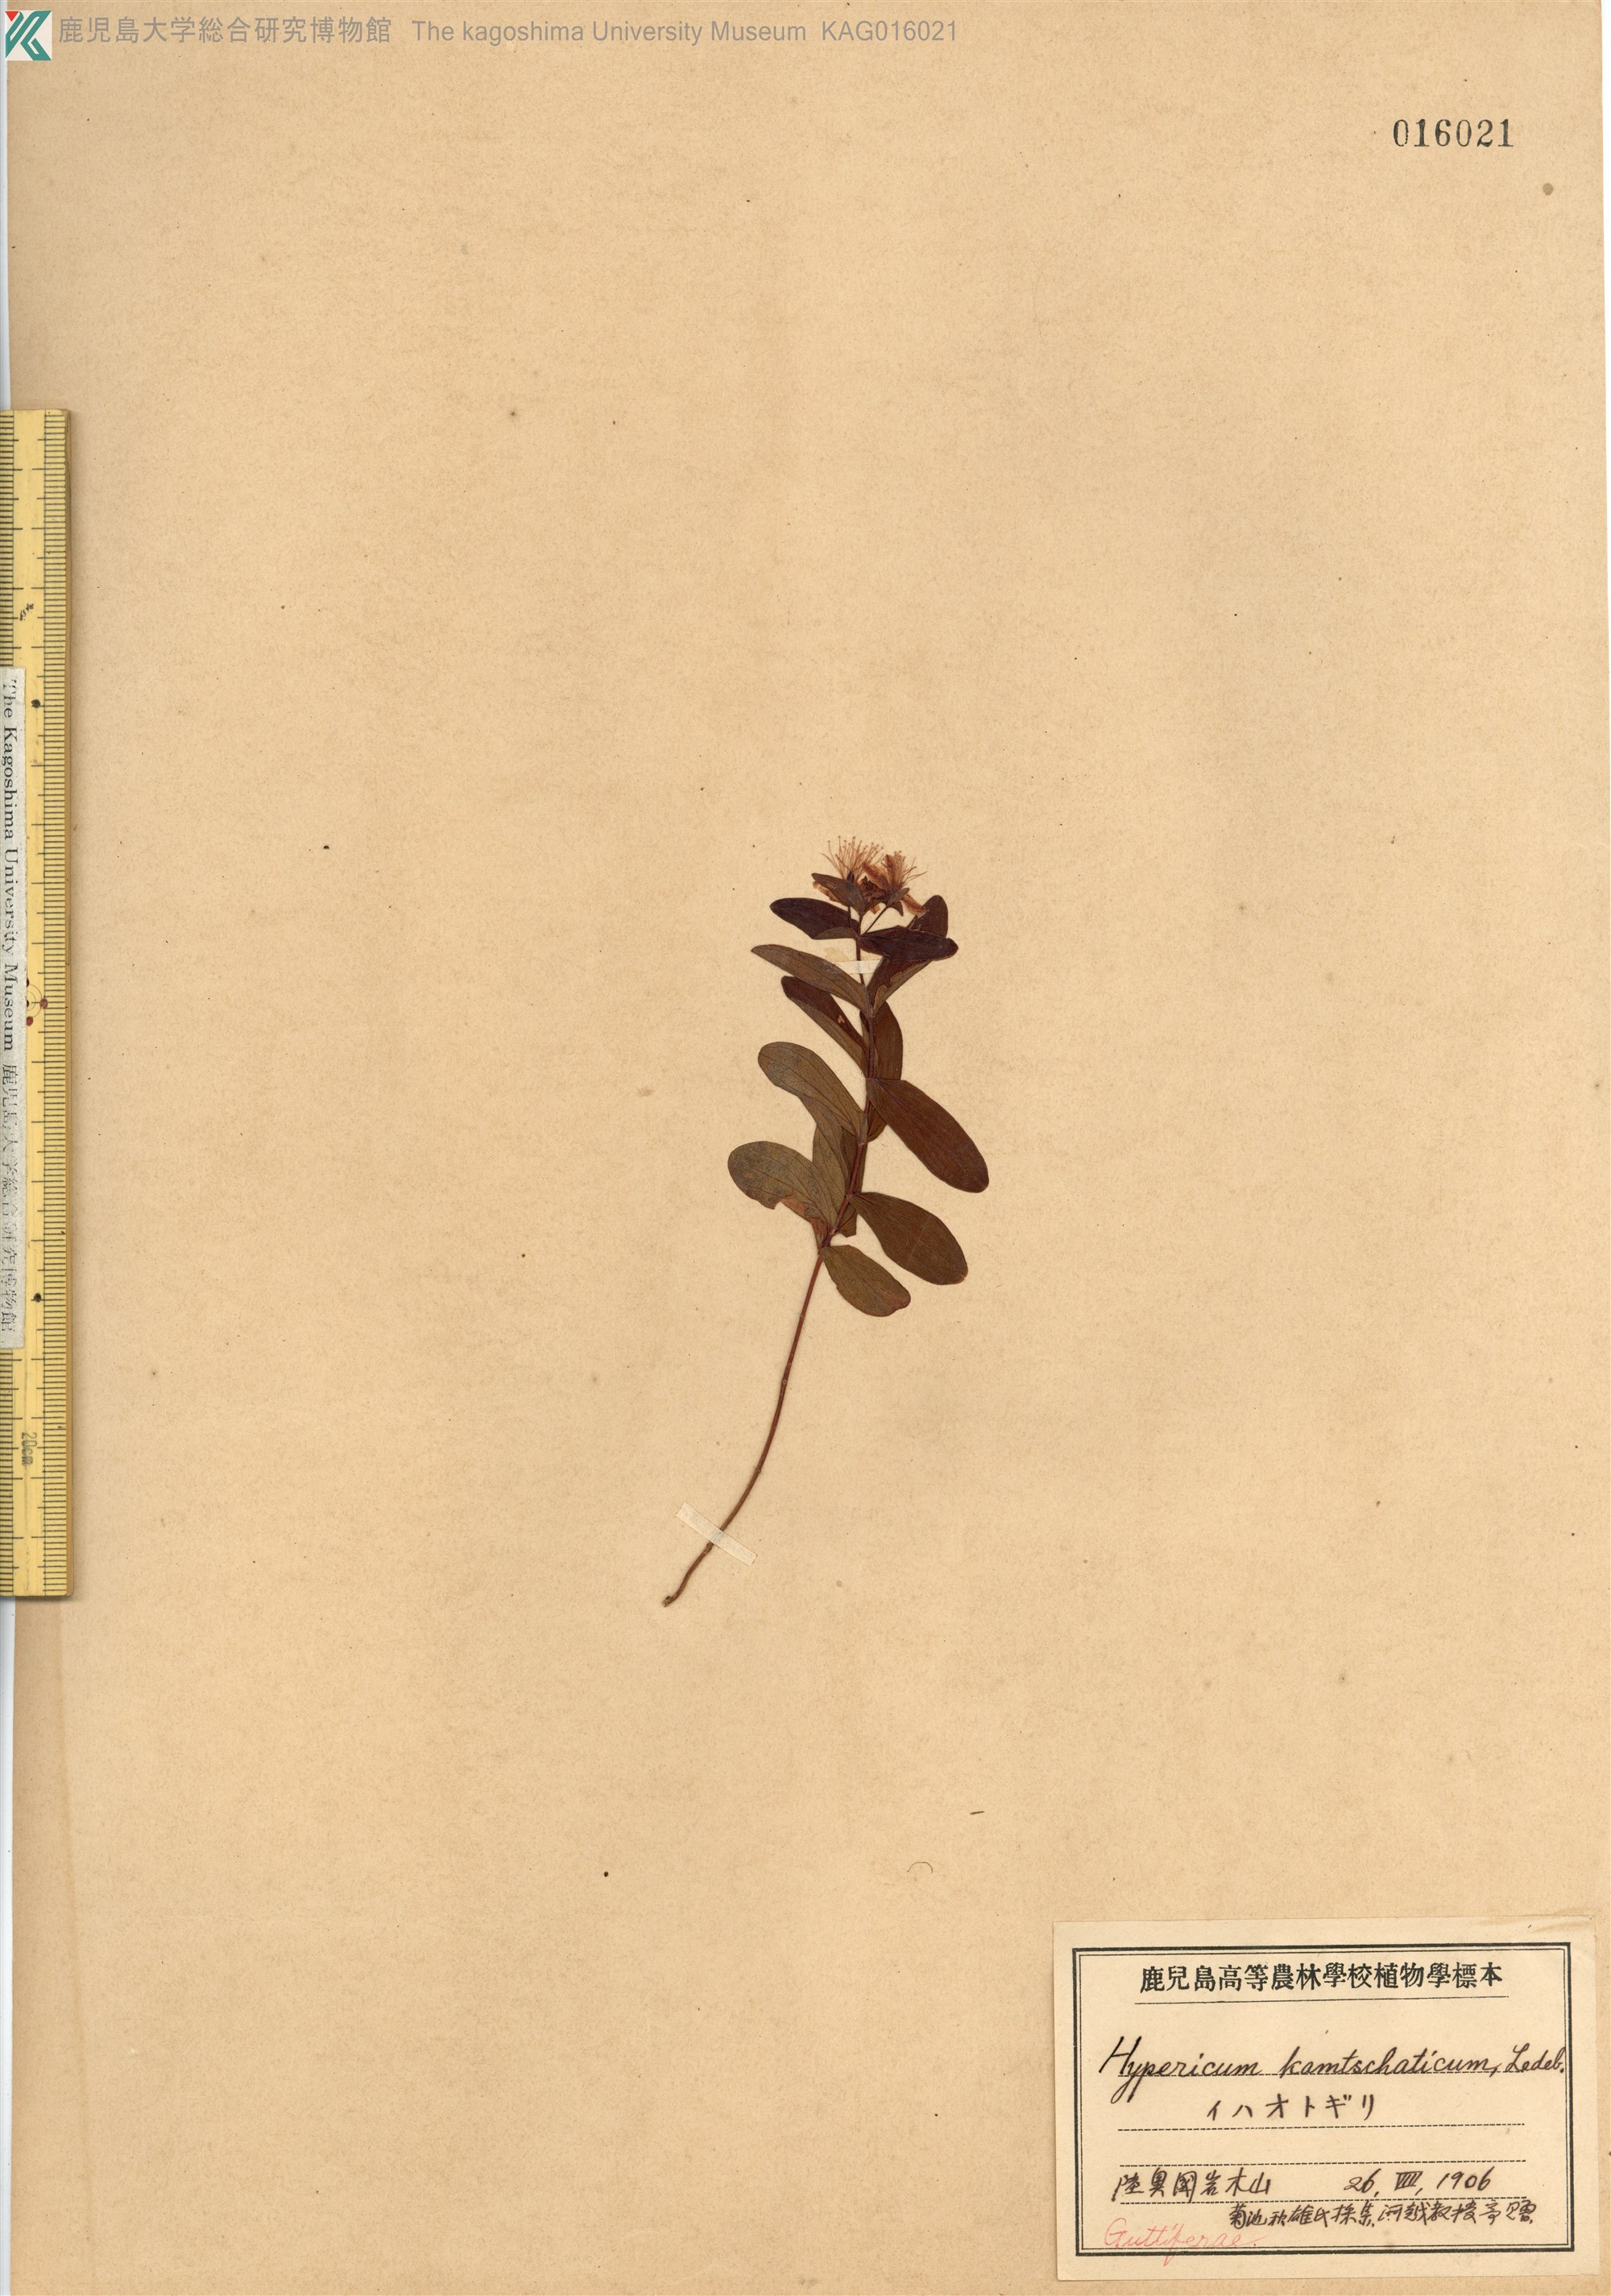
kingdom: Plantae
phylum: Tracheophyta
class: Magnoliopsida
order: Malpighiales
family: Hypericaceae
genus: Hypericum
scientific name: Hypericum kamtschaticum
